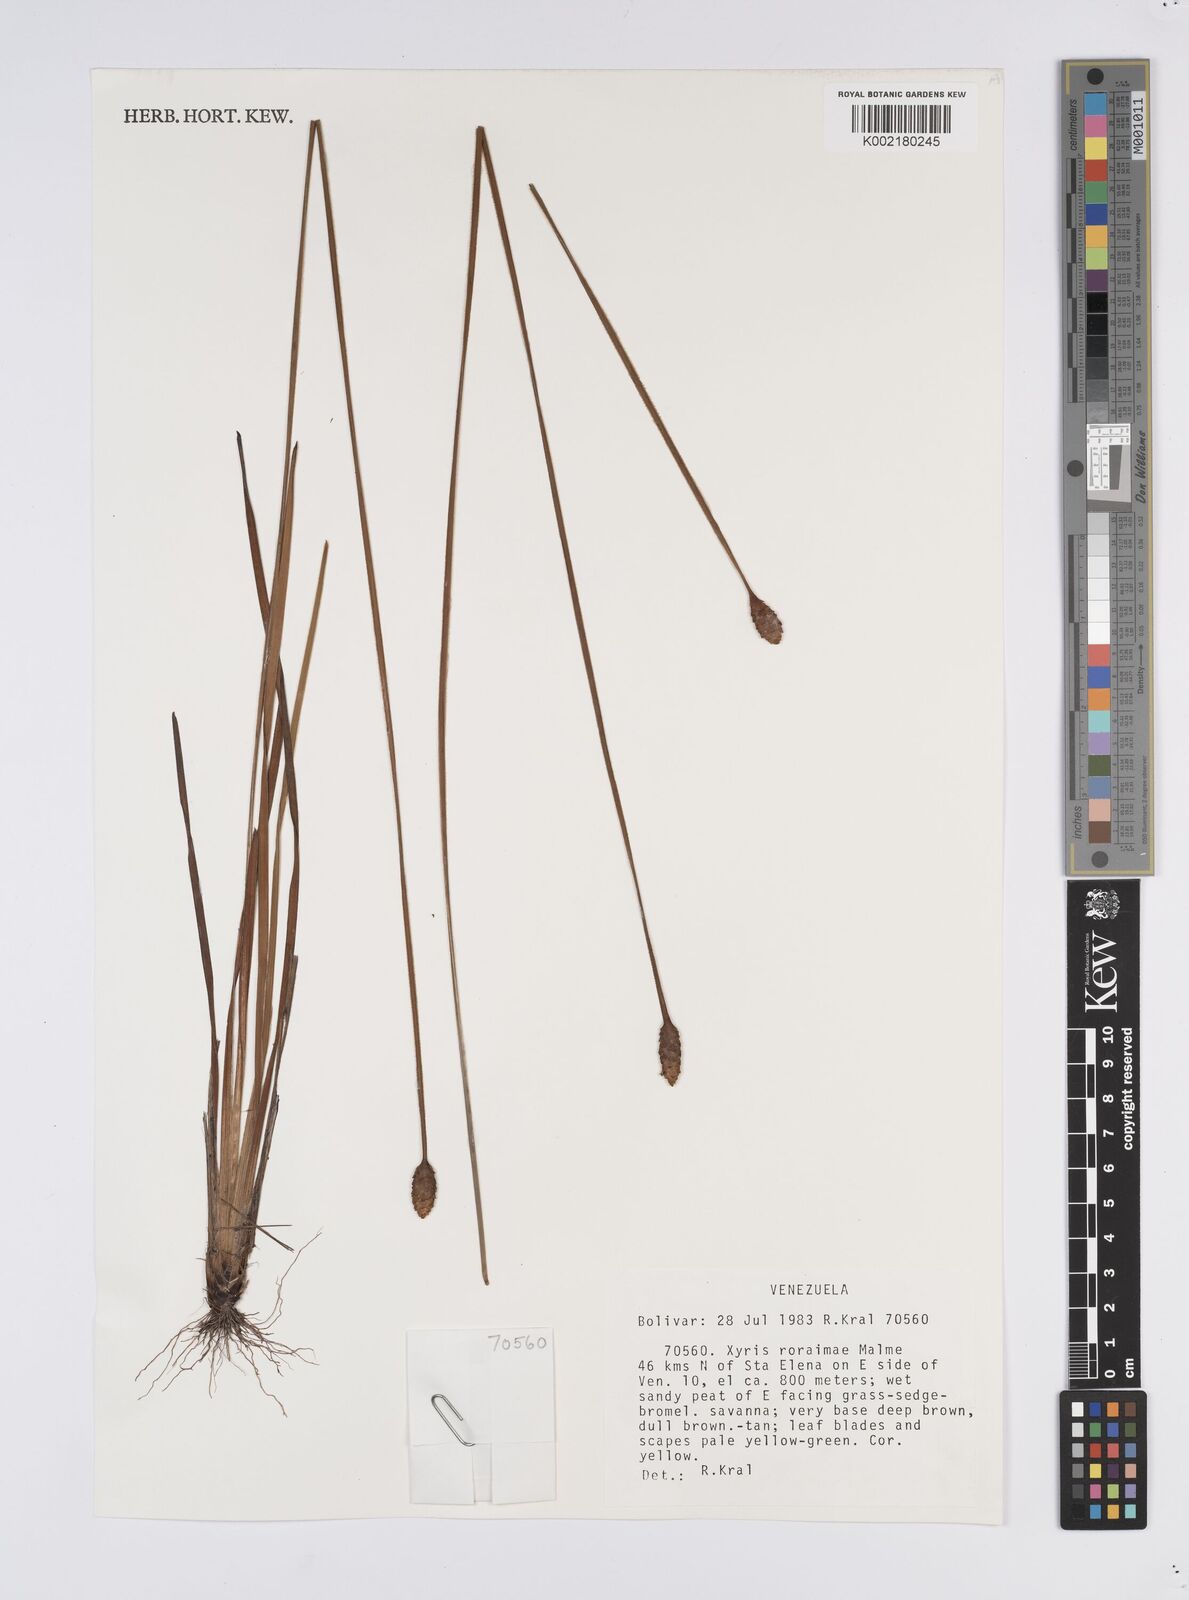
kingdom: Plantae
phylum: Tracheophyta
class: Liliopsida
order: Poales
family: Xyridaceae
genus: Xyris
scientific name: Xyris roraimae
